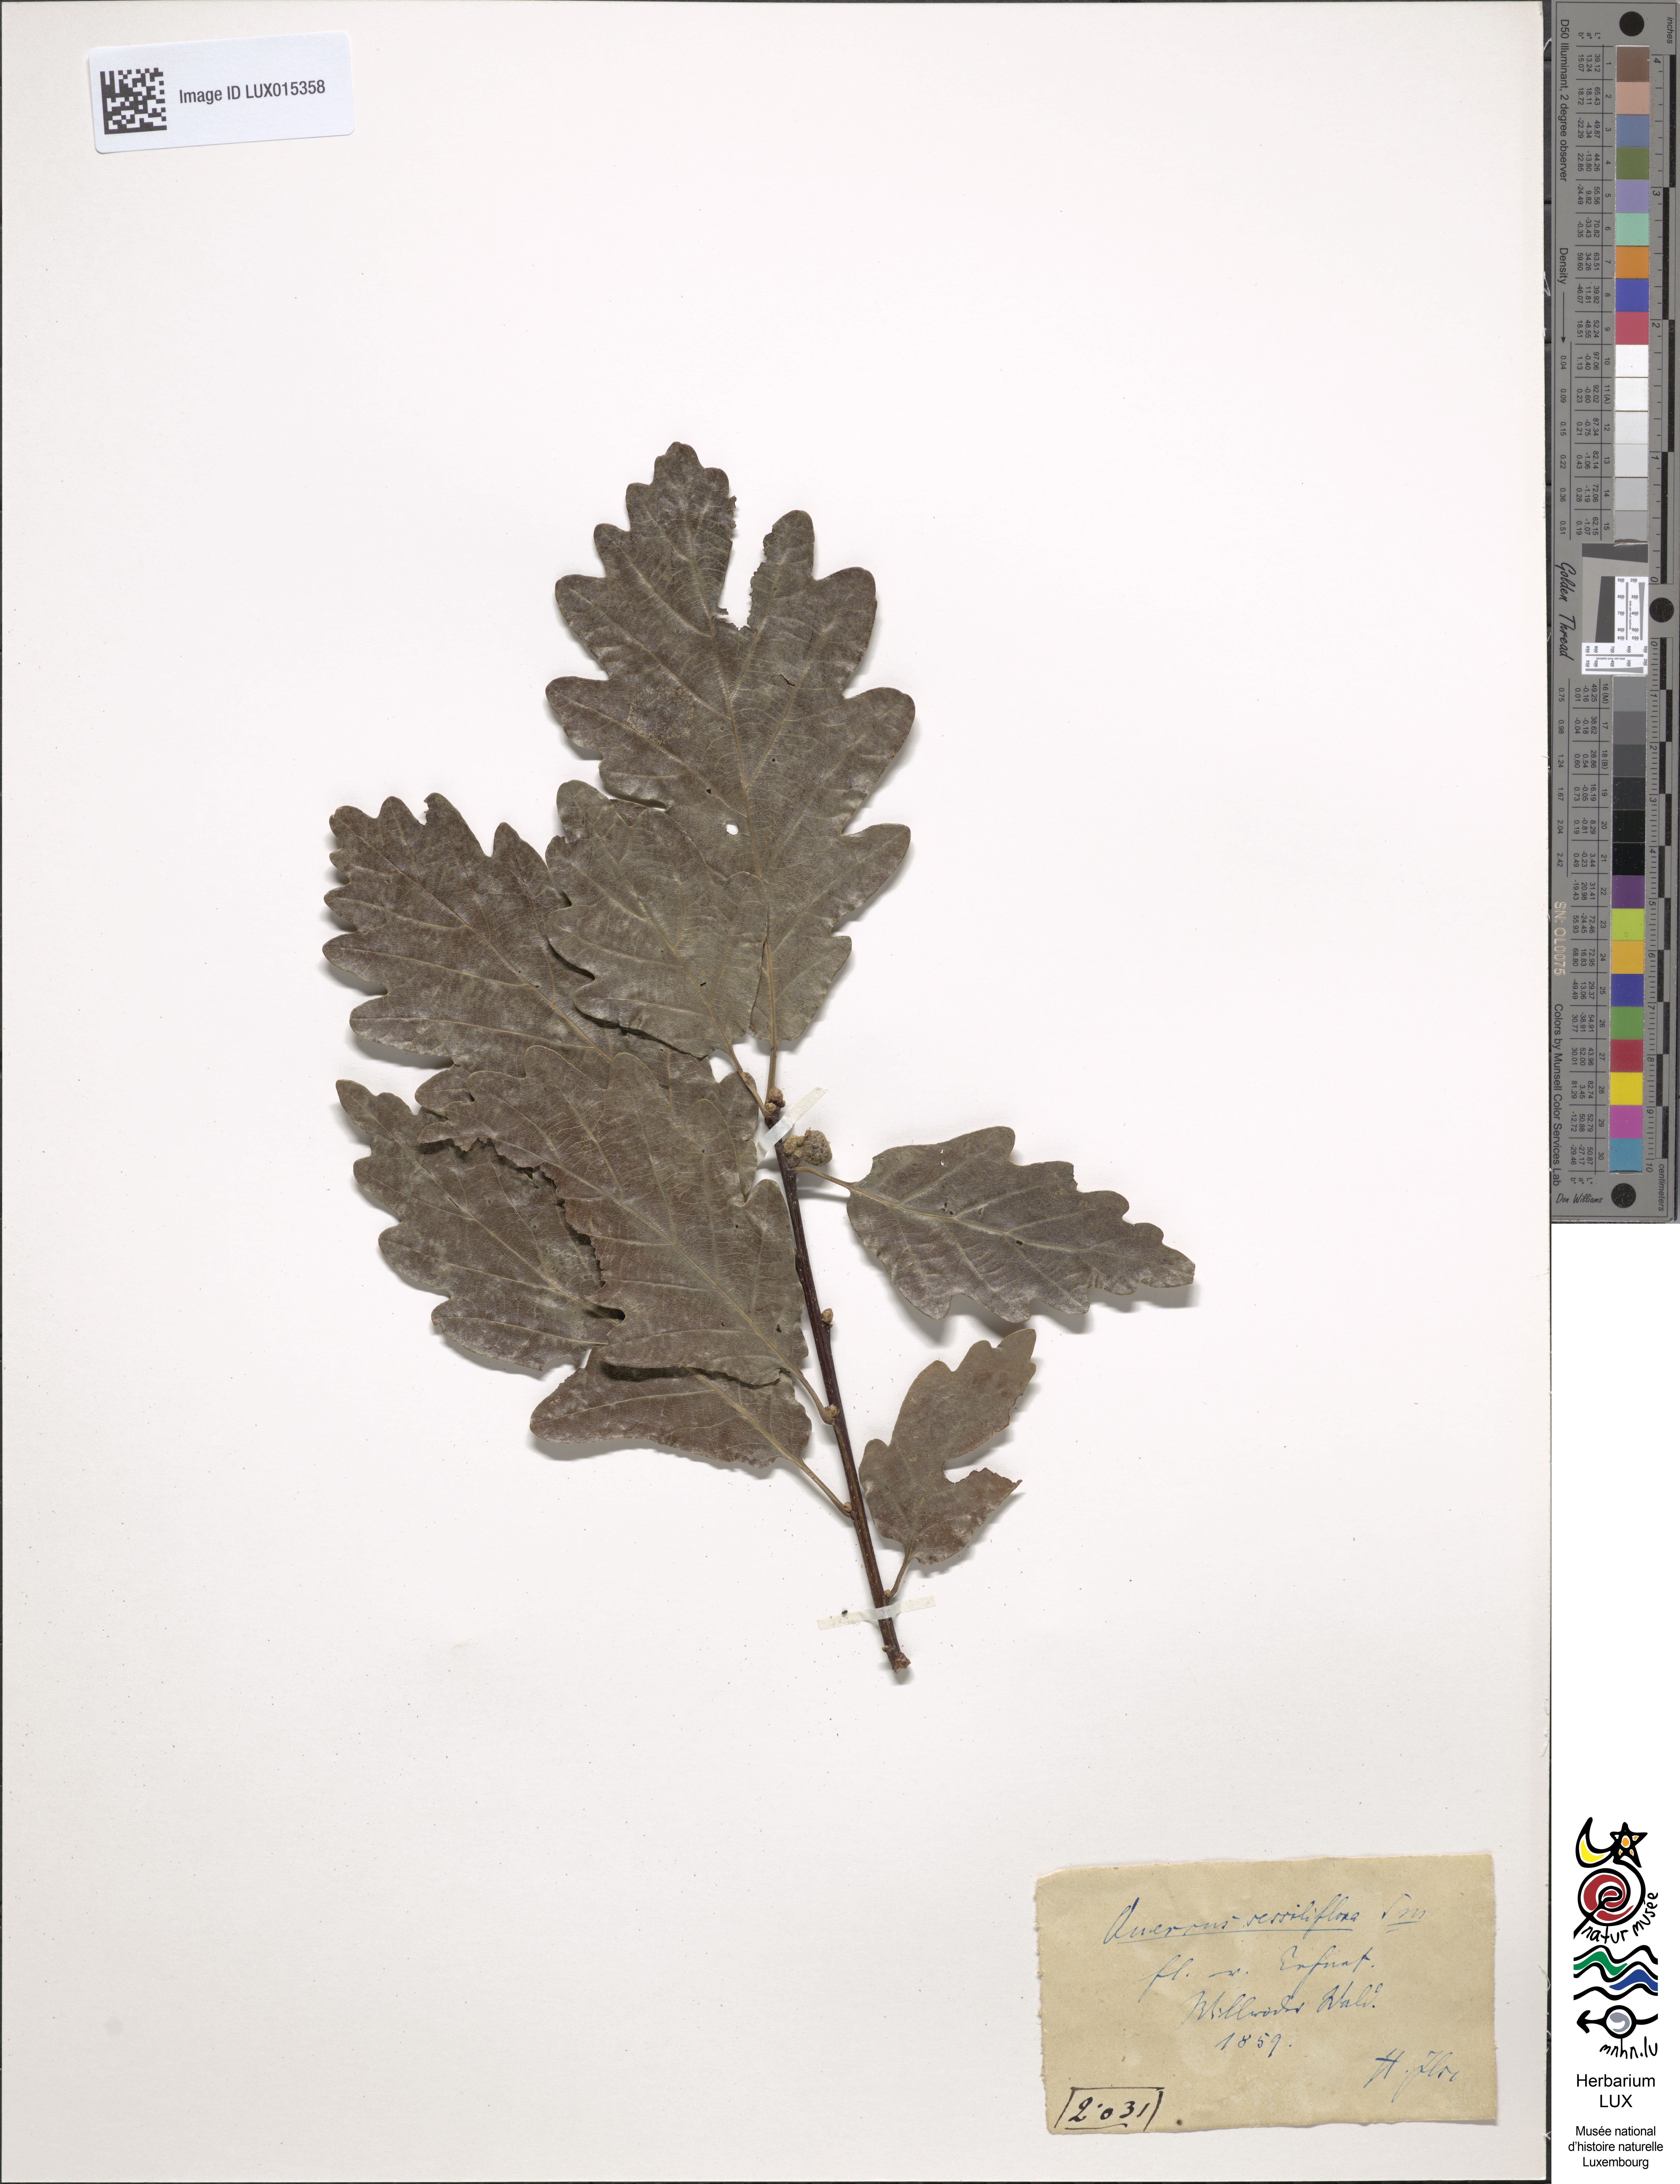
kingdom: Plantae
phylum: Tracheophyta
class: Magnoliopsida
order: Fagales
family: Fagaceae
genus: Quercus
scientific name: Quercus petraea
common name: Sessile oak
